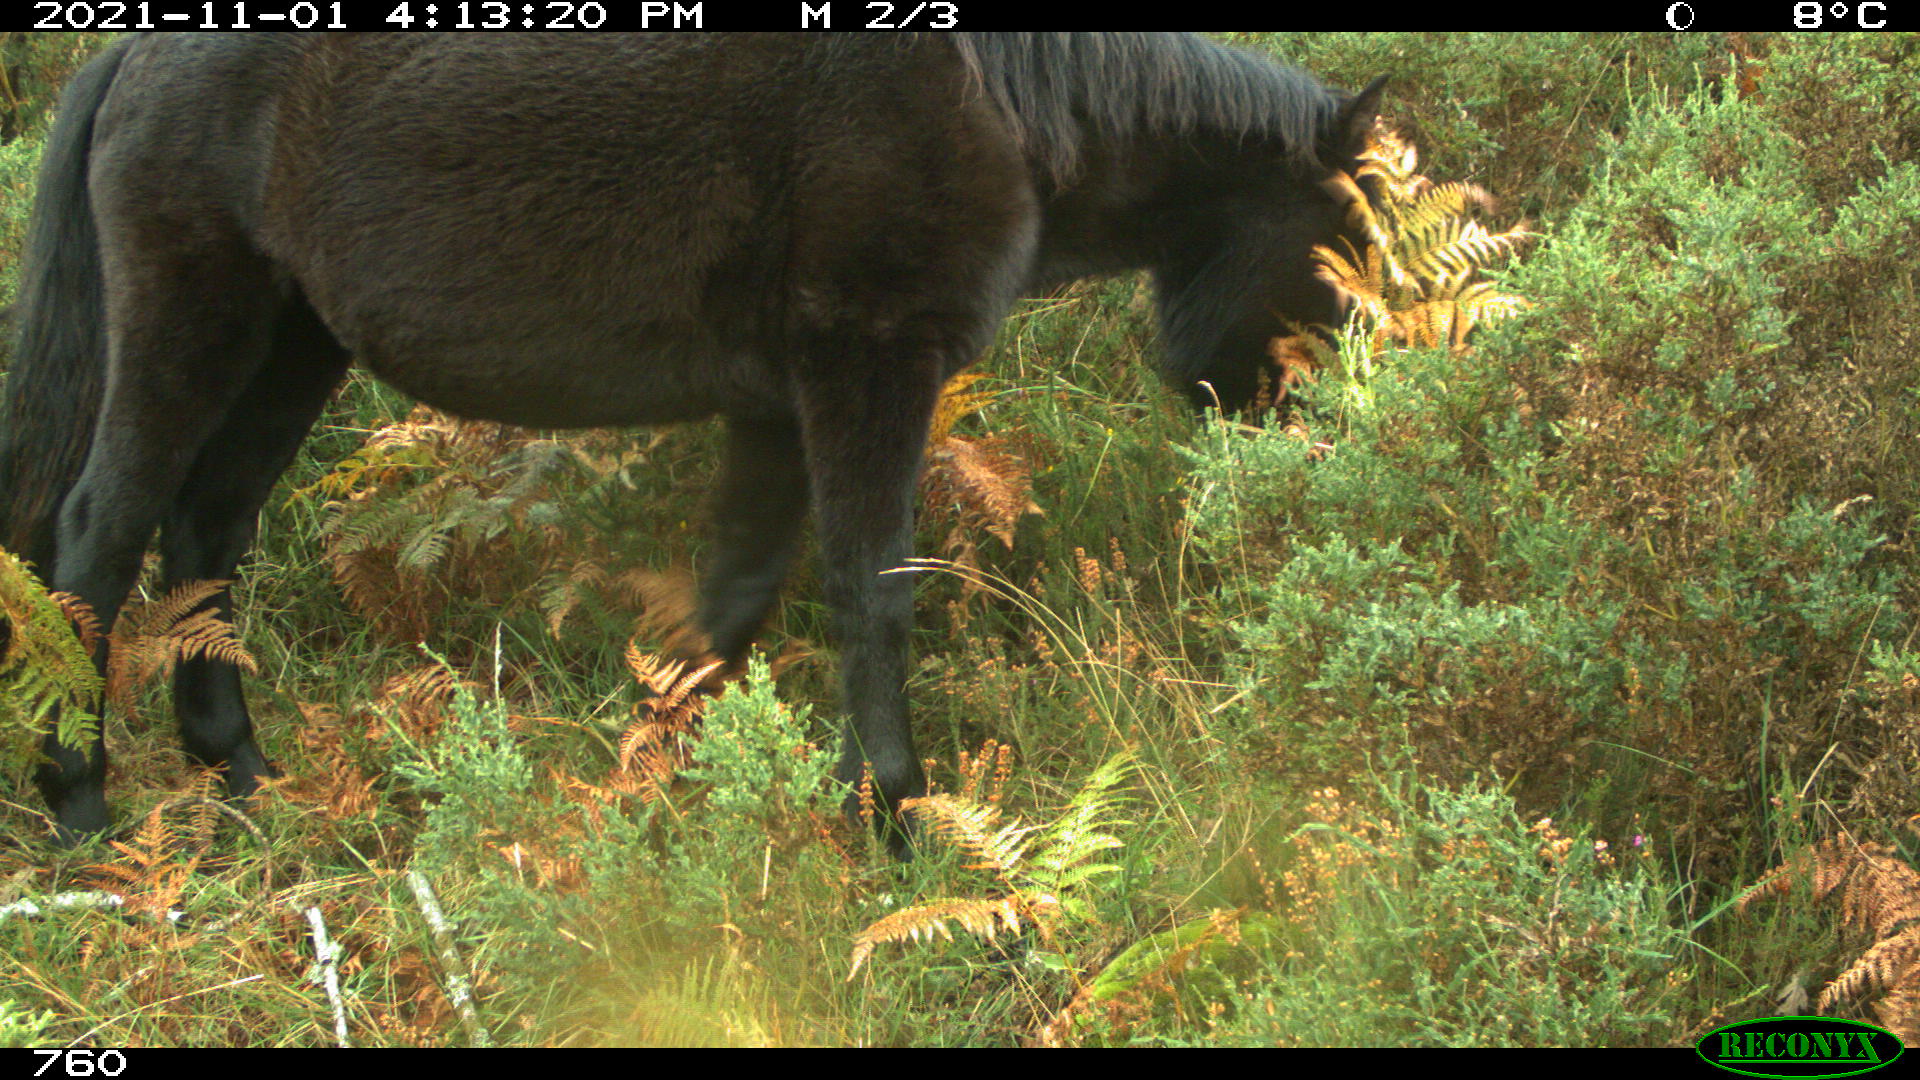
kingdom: Animalia
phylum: Chordata
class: Mammalia
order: Perissodactyla
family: Equidae
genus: Equus
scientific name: Equus caballus
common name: Horse
